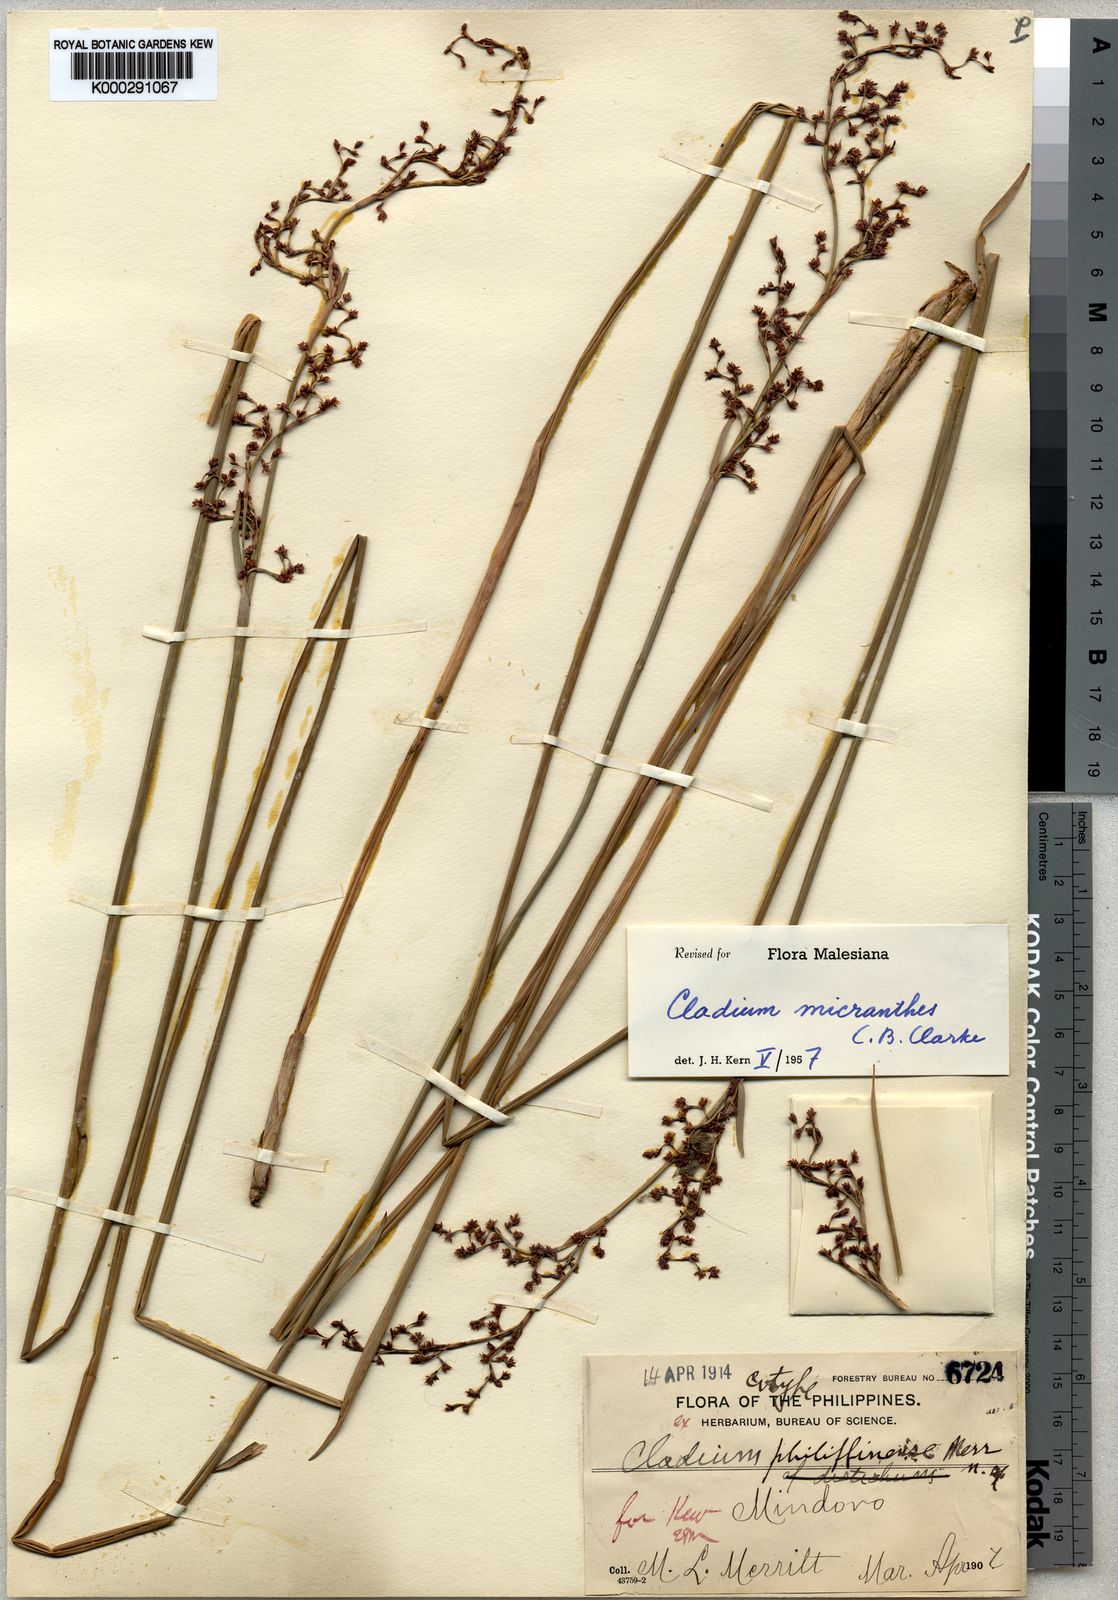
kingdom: Plantae
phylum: Tracheophyta
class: Liliopsida
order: Poales
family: Cyperaceae
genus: Machaerina
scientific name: Machaerina disticha
